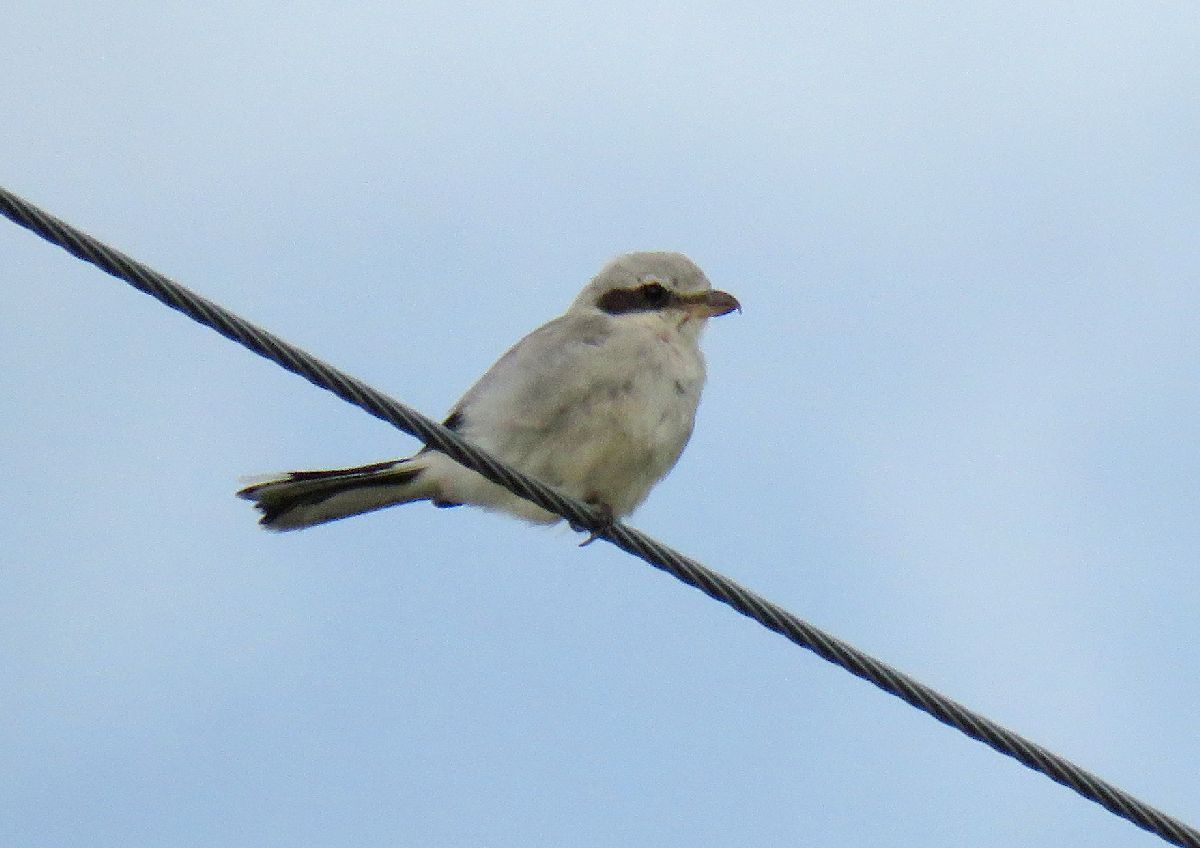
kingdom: Animalia
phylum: Chordata
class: Aves
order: Passeriformes
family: Laniidae
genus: Lanius
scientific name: Lanius excubitor
